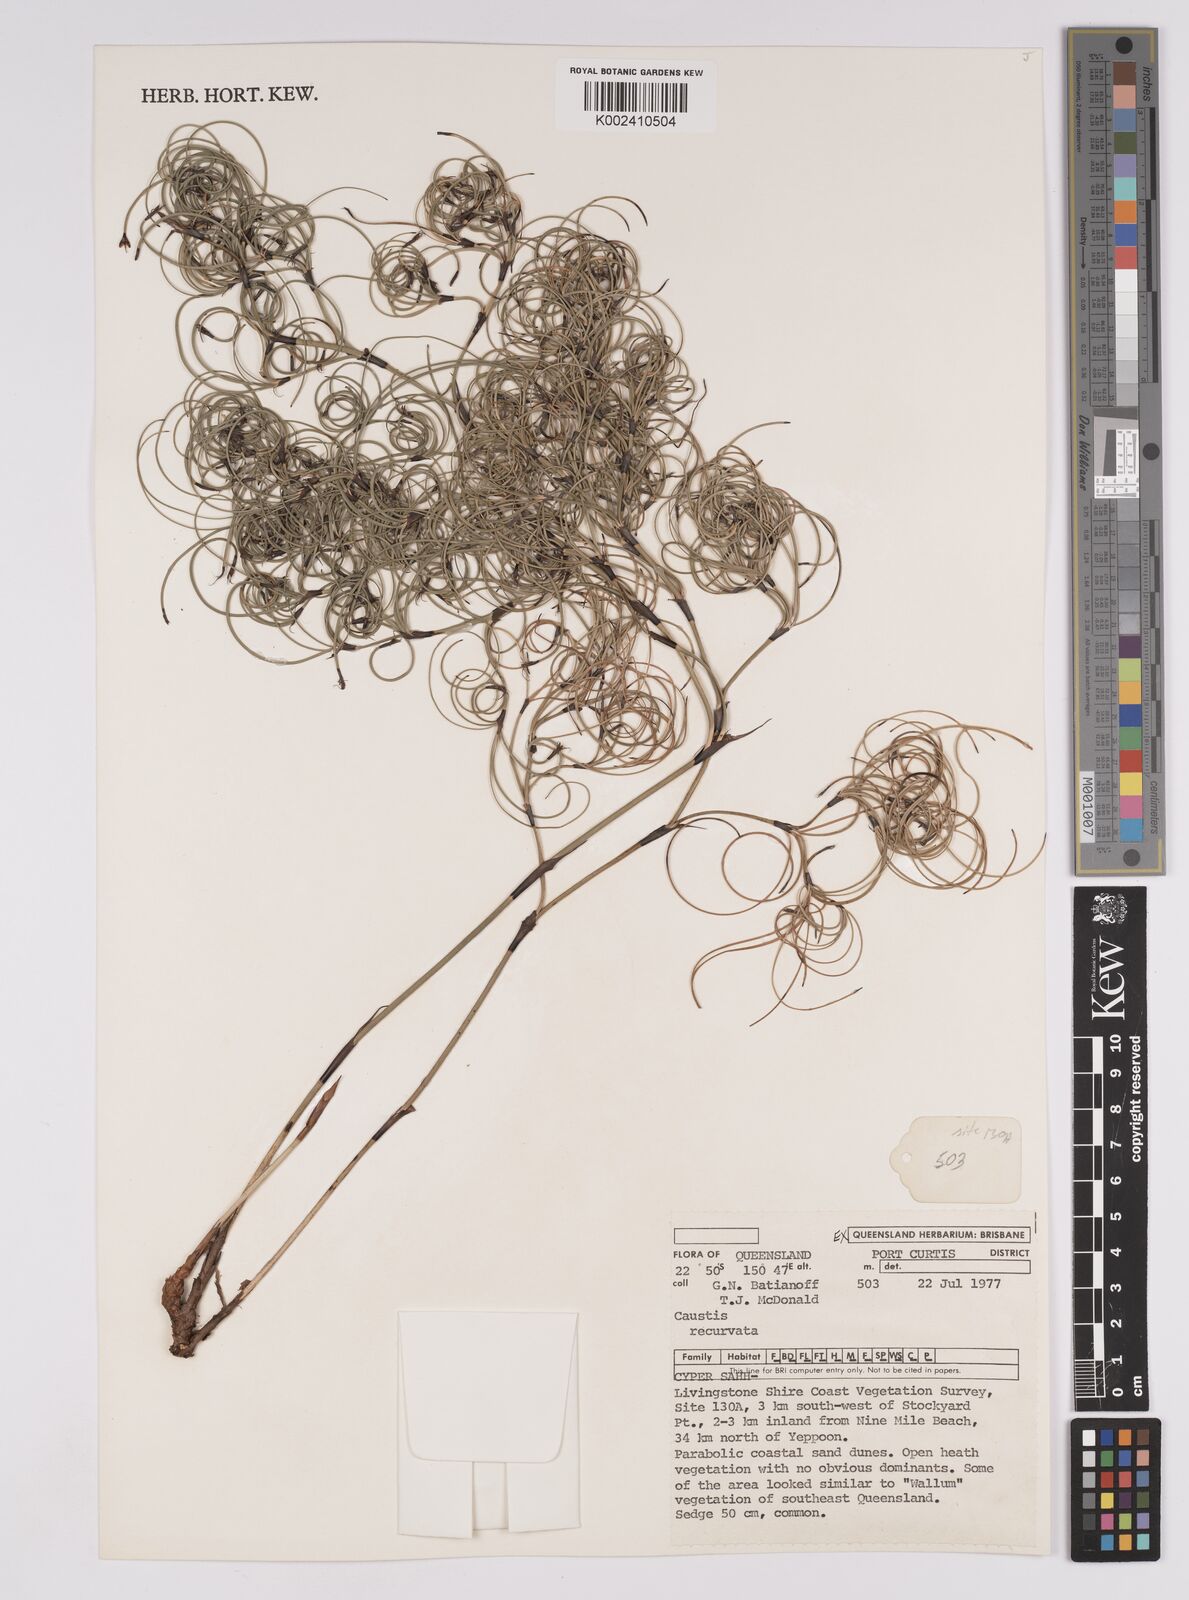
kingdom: Plantae
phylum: Tracheophyta
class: Liliopsida
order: Poales
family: Cyperaceae
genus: Caustis
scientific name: Caustis recurvata
